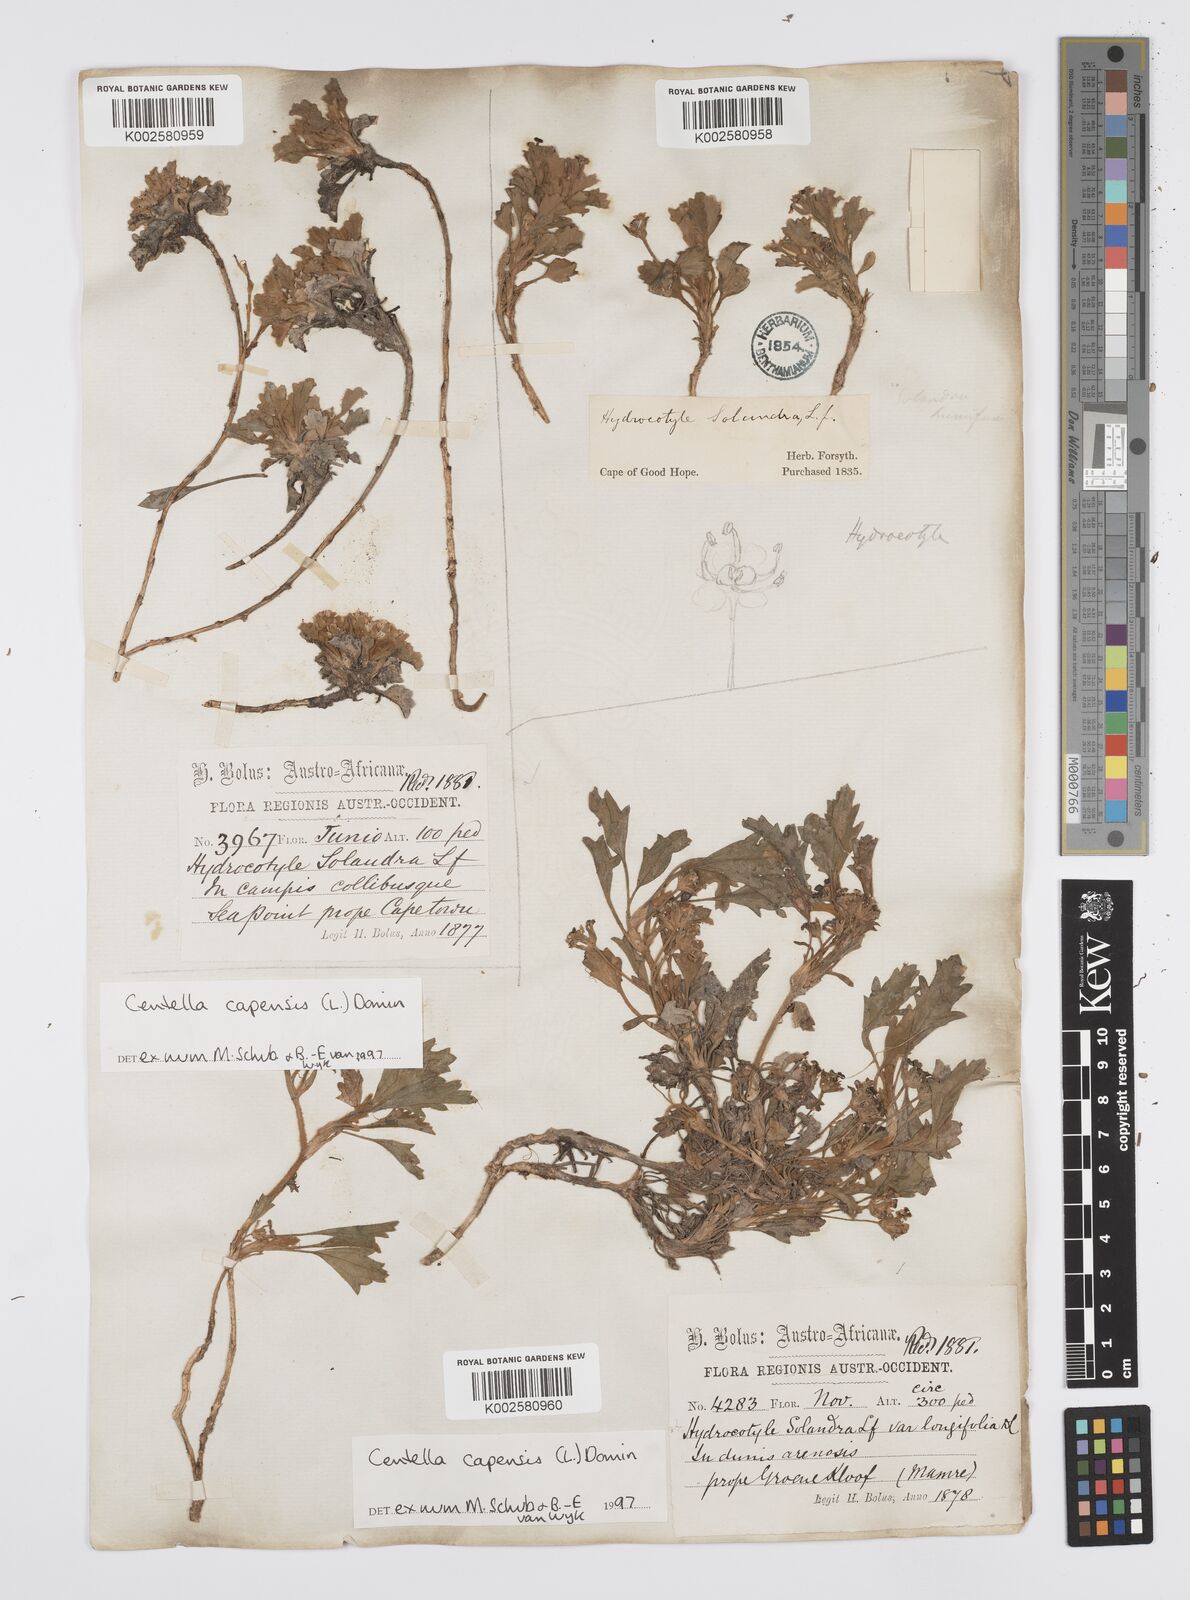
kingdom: Plantae
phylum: Tracheophyta
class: Magnoliopsida
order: Apiales
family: Apiaceae
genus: Centella
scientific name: Centella capensis
